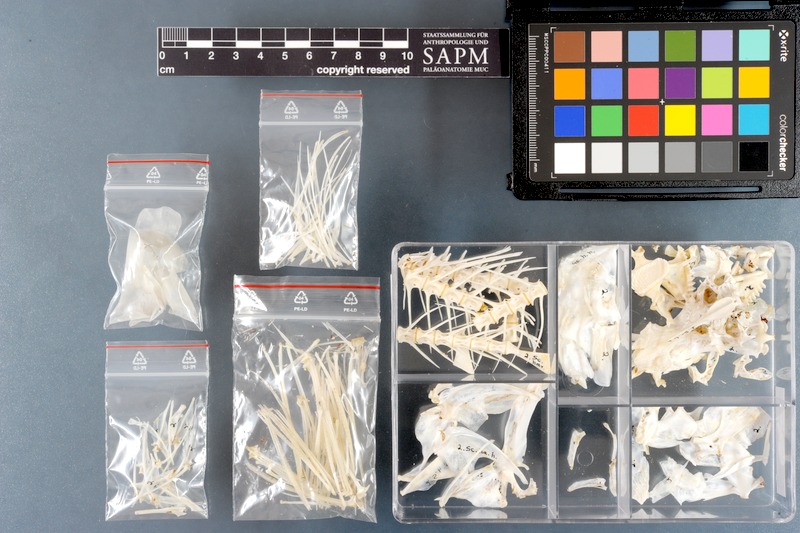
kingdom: Animalia
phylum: Chordata
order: Perciformes
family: Scaridae
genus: Hipposcarus
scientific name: Hipposcarus harid
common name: Candelamoa parrotfish
